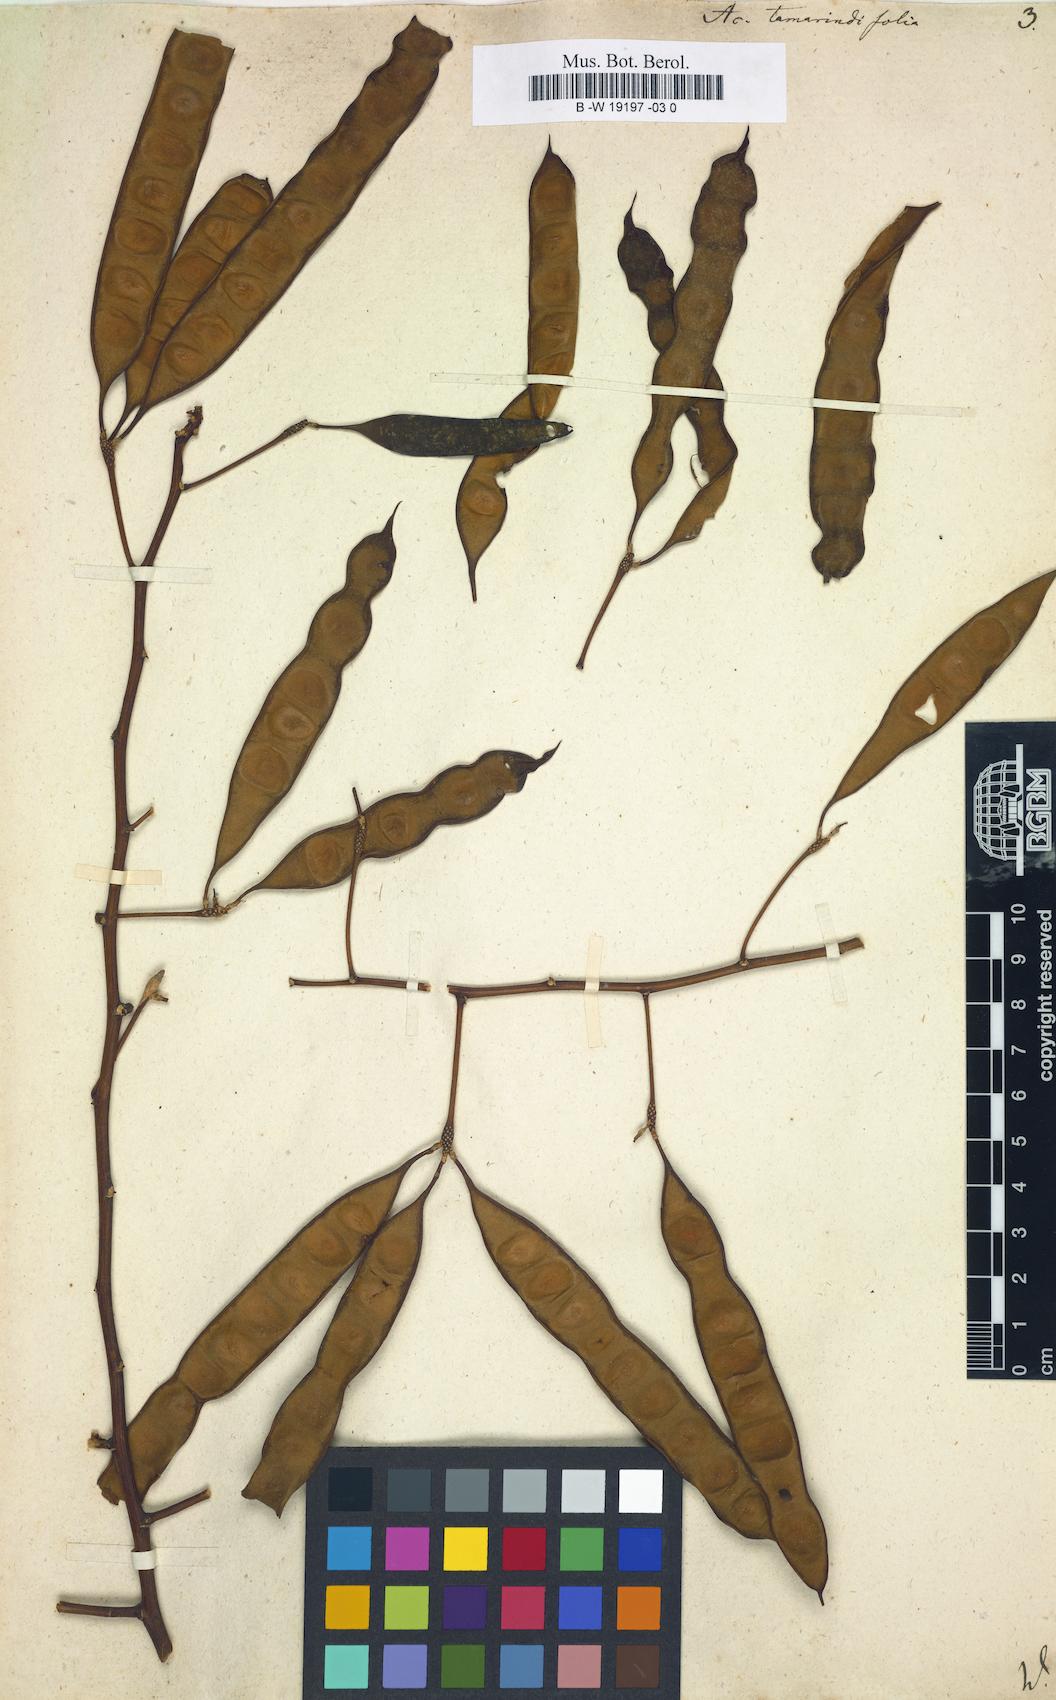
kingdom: Plantae
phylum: Tracheophyta
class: Magnoliopsida
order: Fabales
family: Fabaceae
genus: Senegalia
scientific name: Senegalia tamarindifolia
